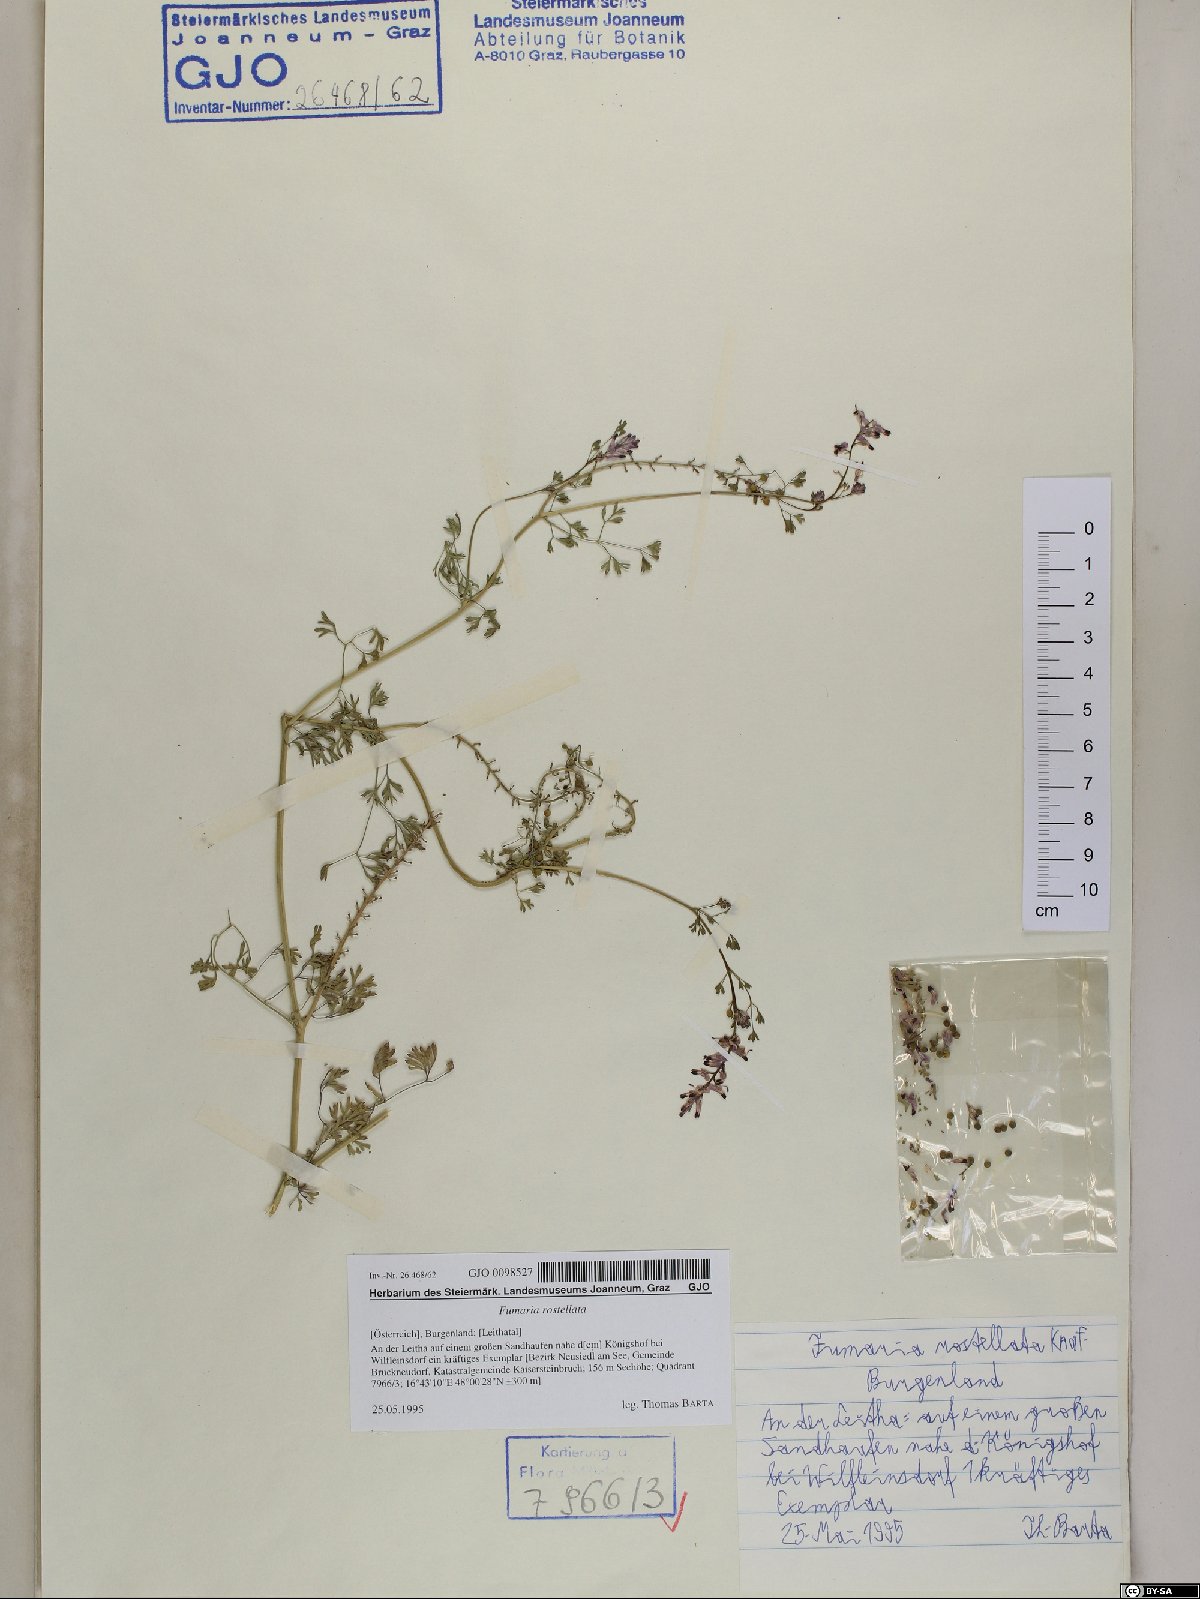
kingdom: Plantae
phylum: Tracheophyta
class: Magnoliopsida
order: Ranunculales
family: Papaveraceae
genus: Fumaria
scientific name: Fumaria rostellata
